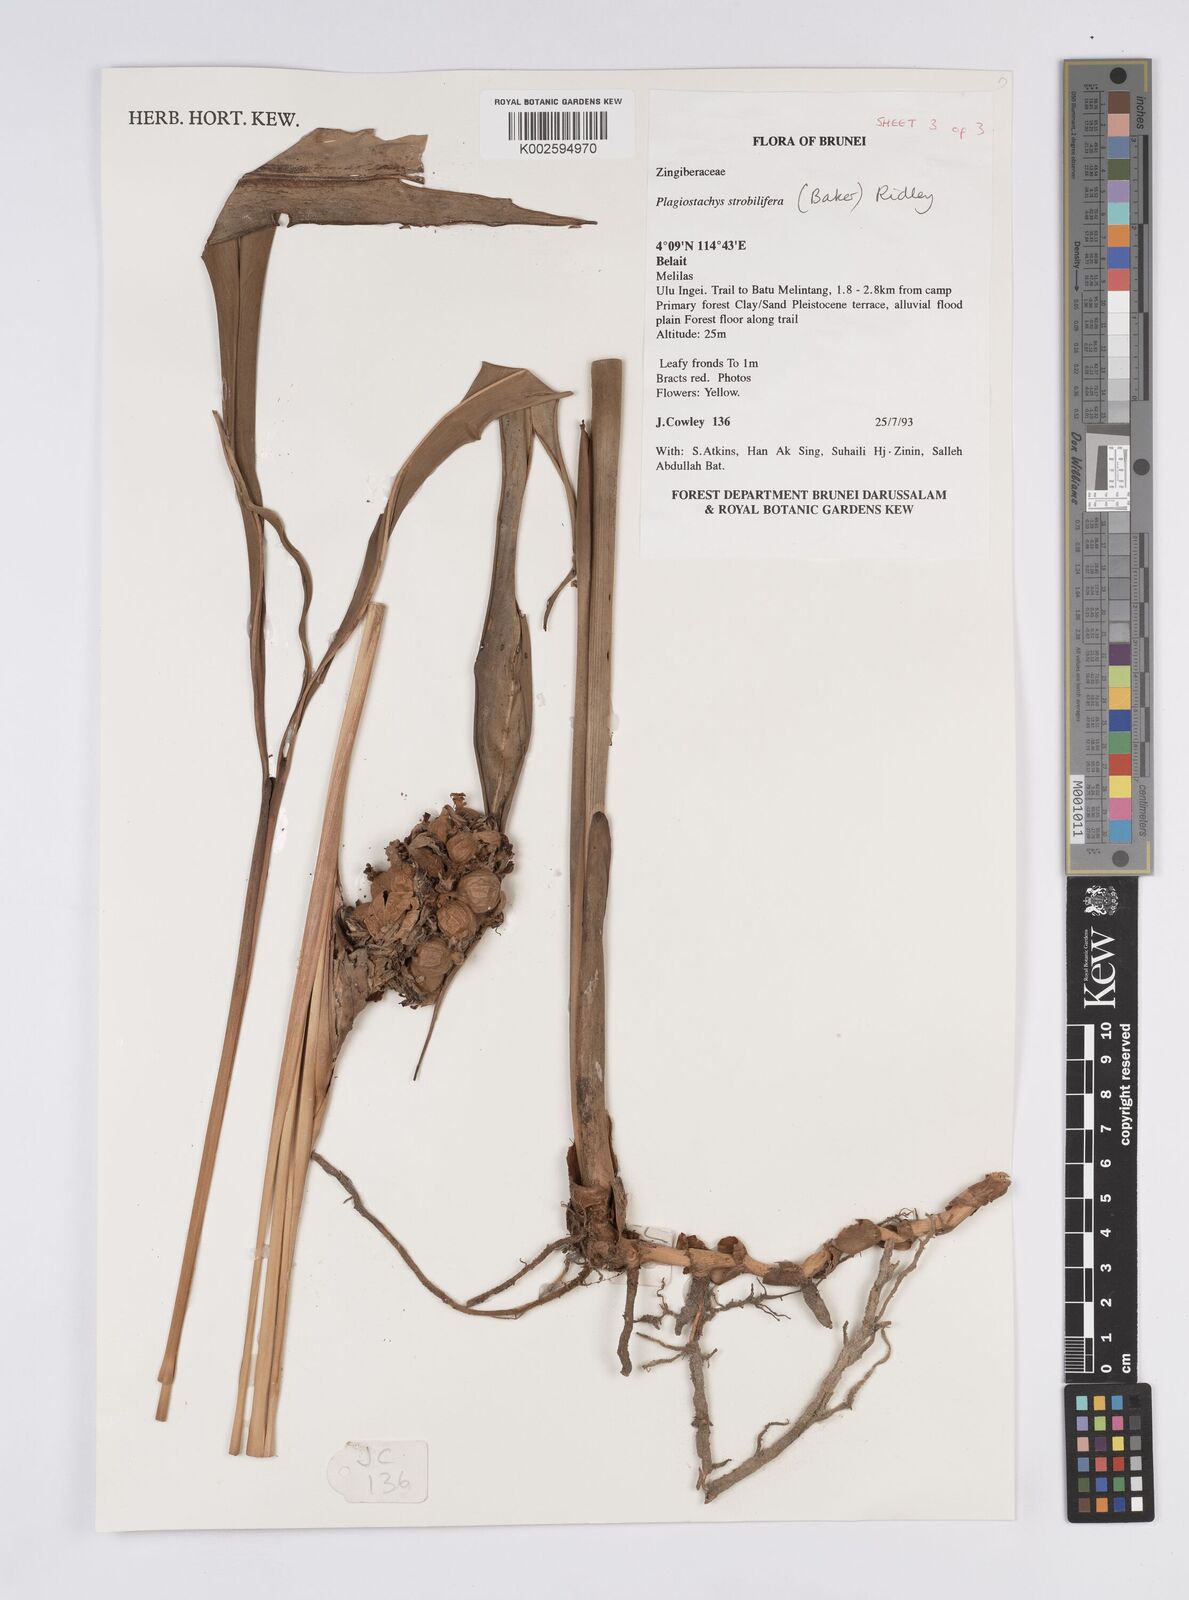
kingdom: Plantae
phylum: Tracheophyta
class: Liliopsida
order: Zingiberales
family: Zingiberaceae
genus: Plagiostachys
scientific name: Plagiostachys strobilifera
